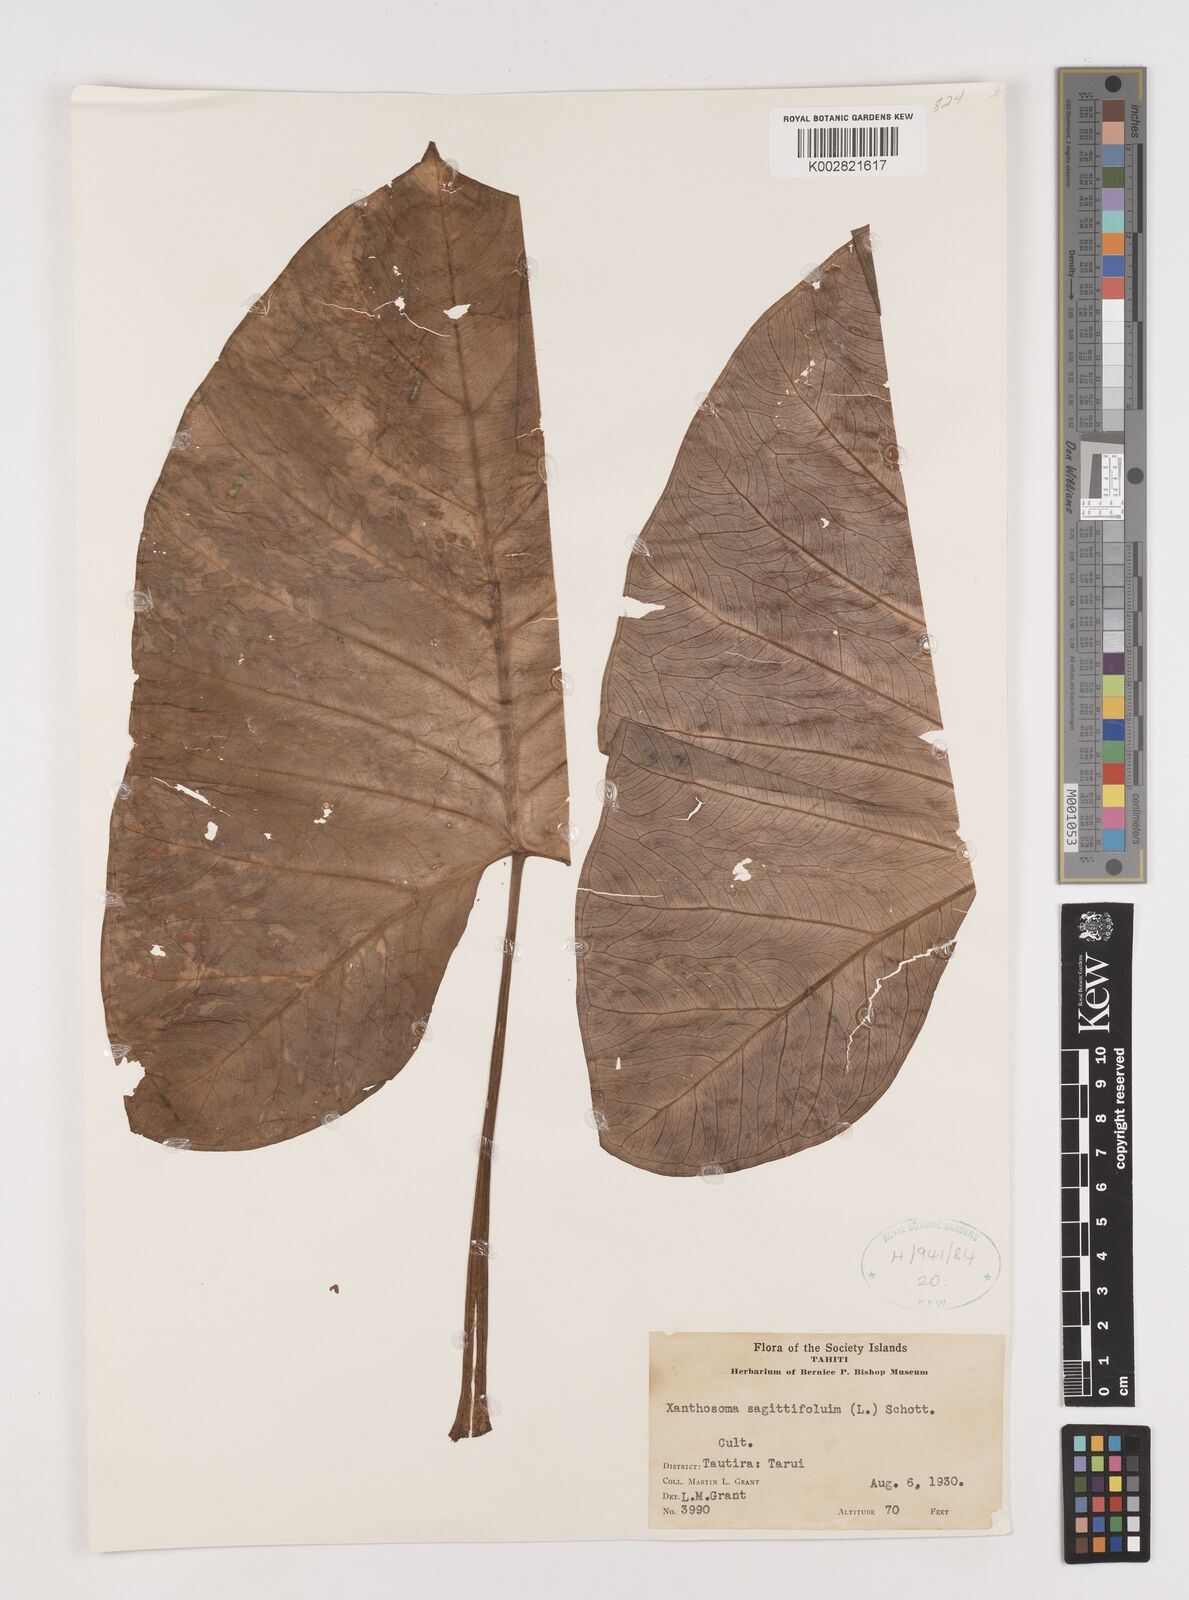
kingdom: Plantae
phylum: Tracheophyta
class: Liliopsida
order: Alismatales
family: Araceae
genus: Xanthosoma
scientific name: Xanthosoma sagittifolium
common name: Arrowleaf elephant's ear
